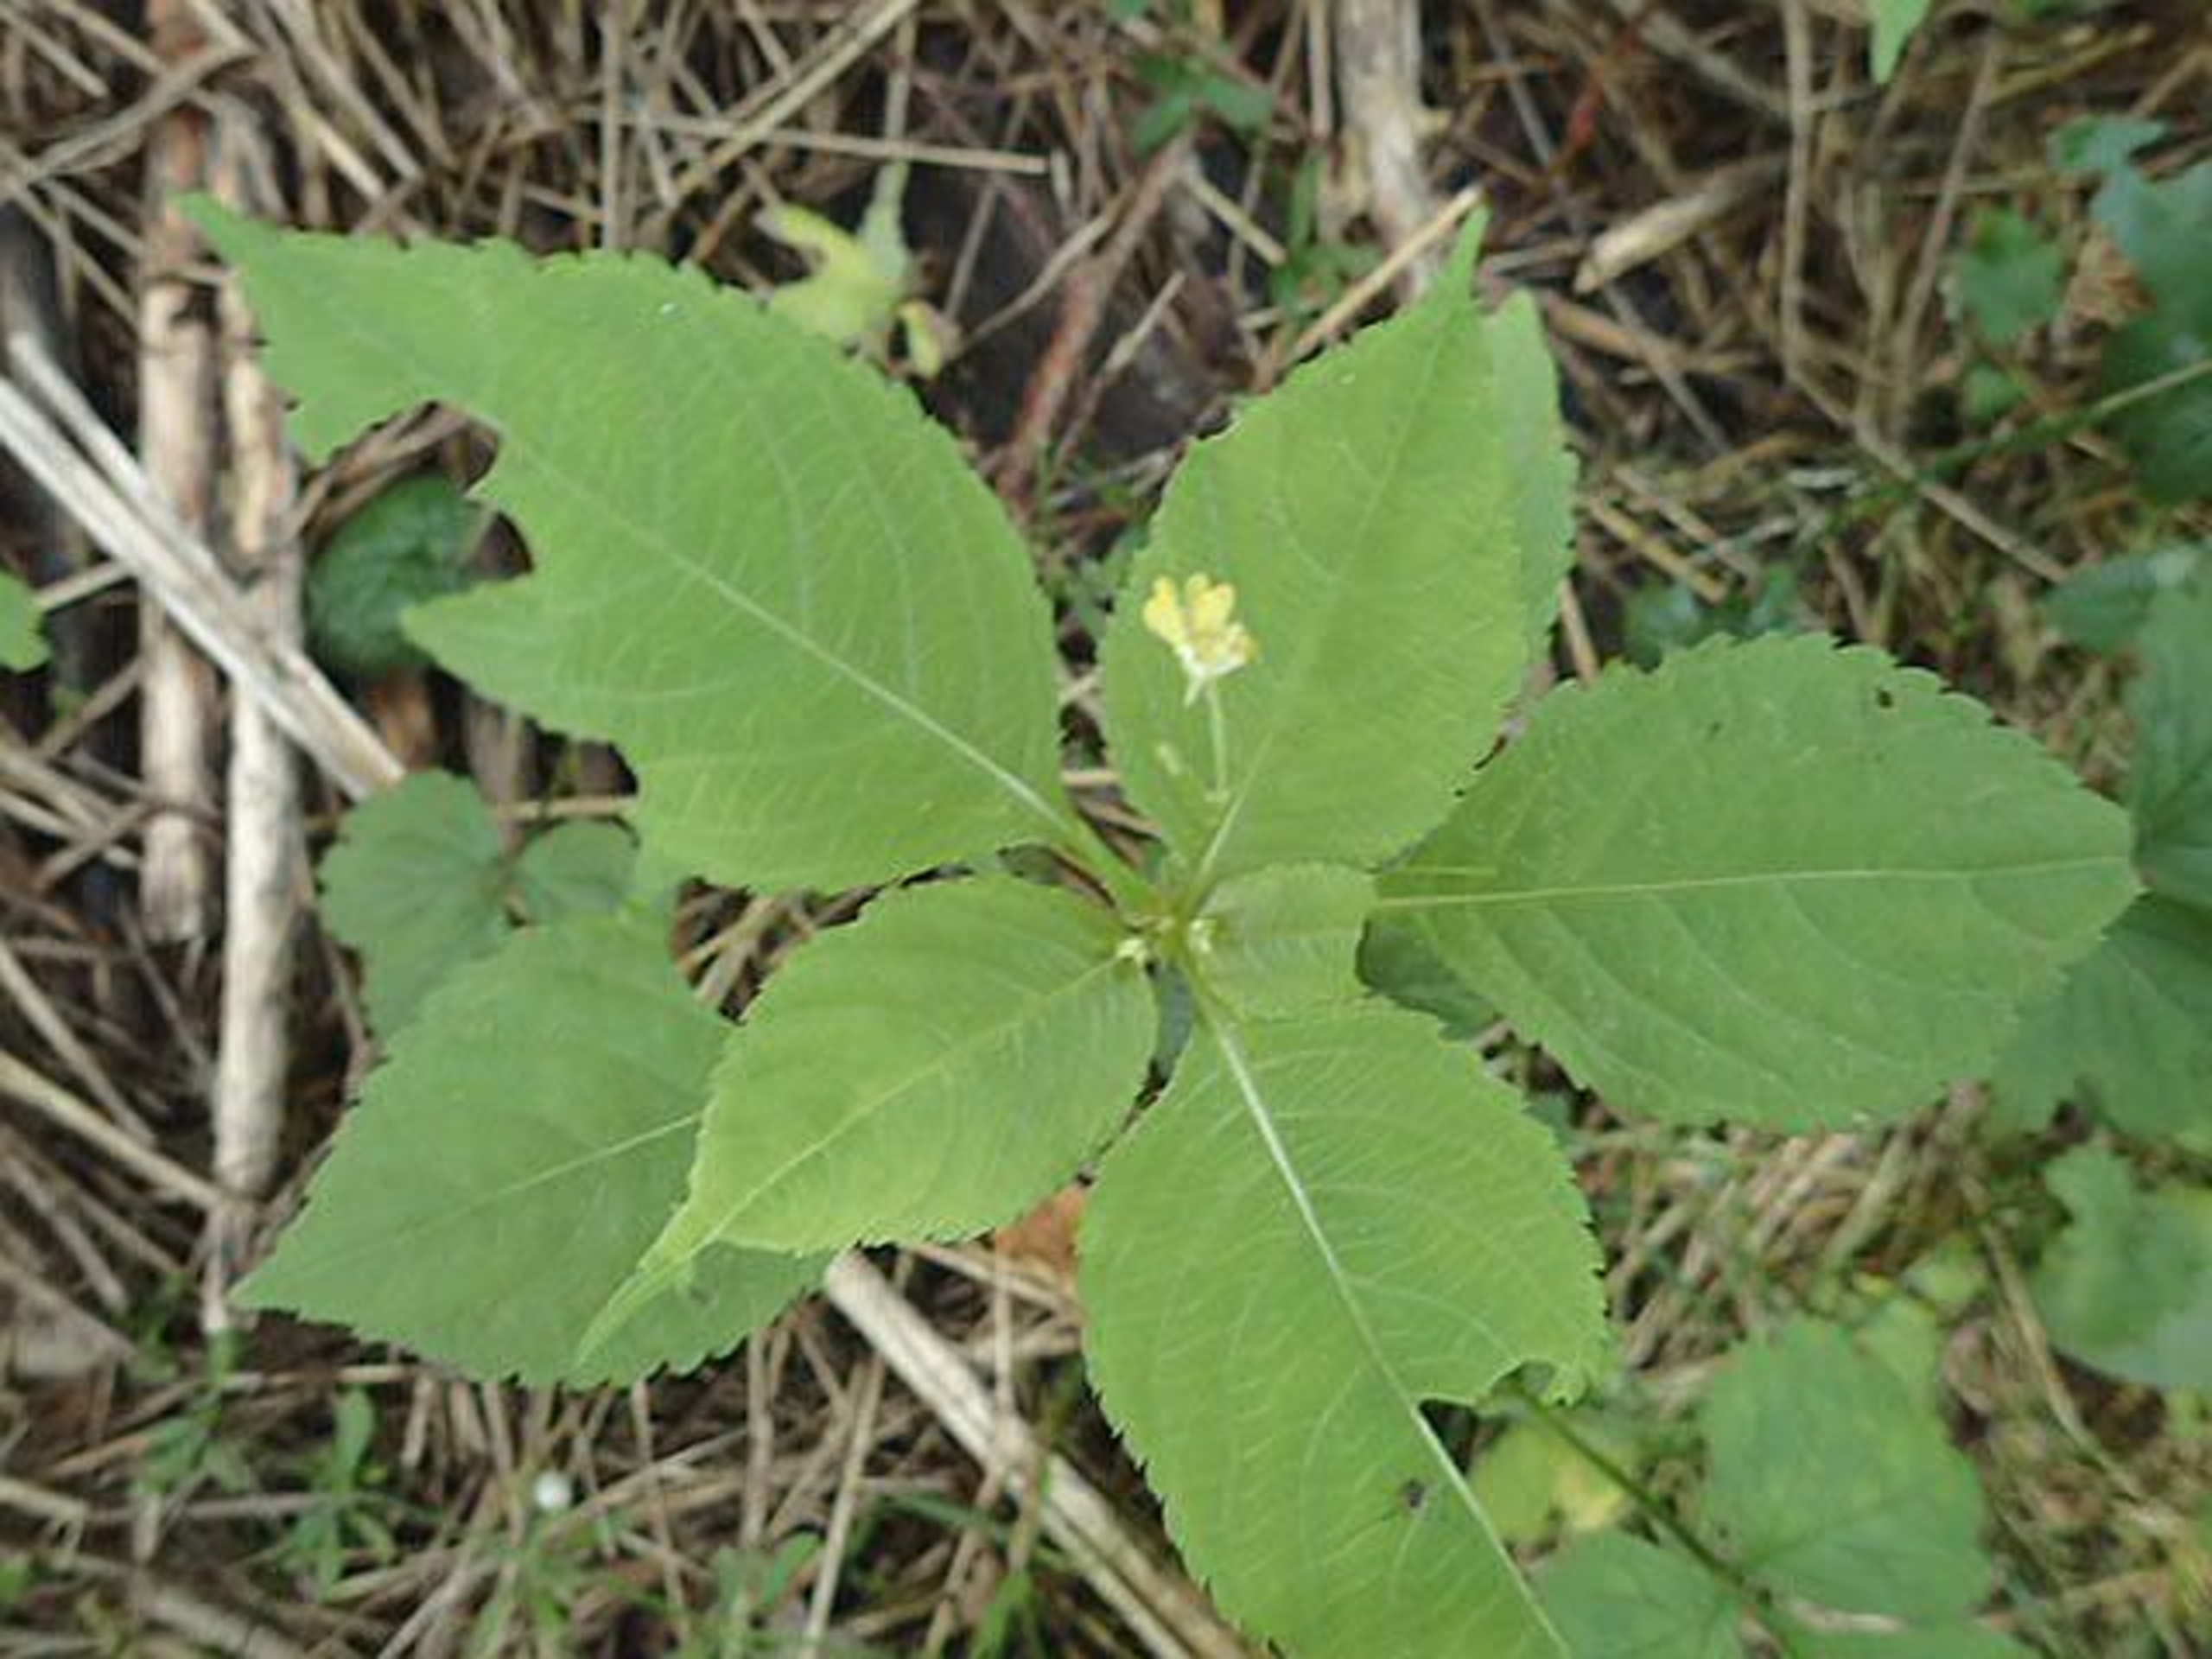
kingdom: Plantae
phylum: Tracheophyta
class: Magnoliopsida
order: Ericales
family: Balsaminaceae
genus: Impatiens
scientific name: Impatiens parviflora
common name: Småblomstret balsamin
